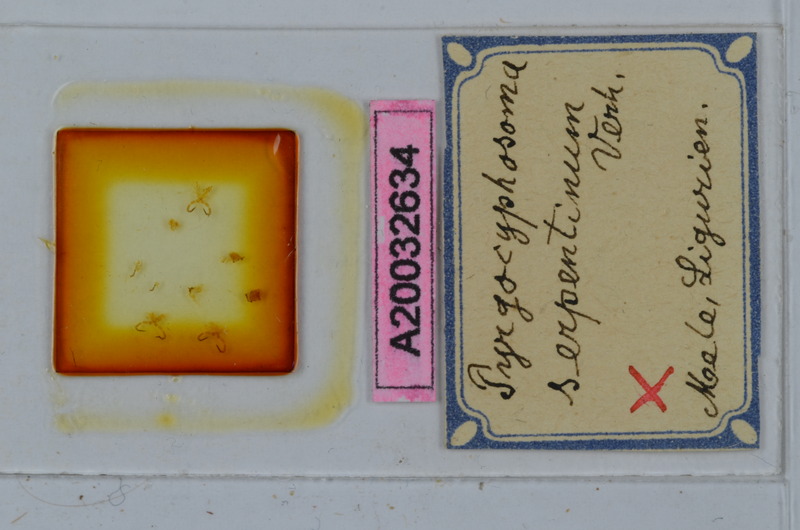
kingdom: Animalia
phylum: Arthropoda
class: Diplopoda
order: Chordeumatida
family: Craspedosomatidae
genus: Pyrgocyphosoma
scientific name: Pyrgocyphosoma serpentinum
